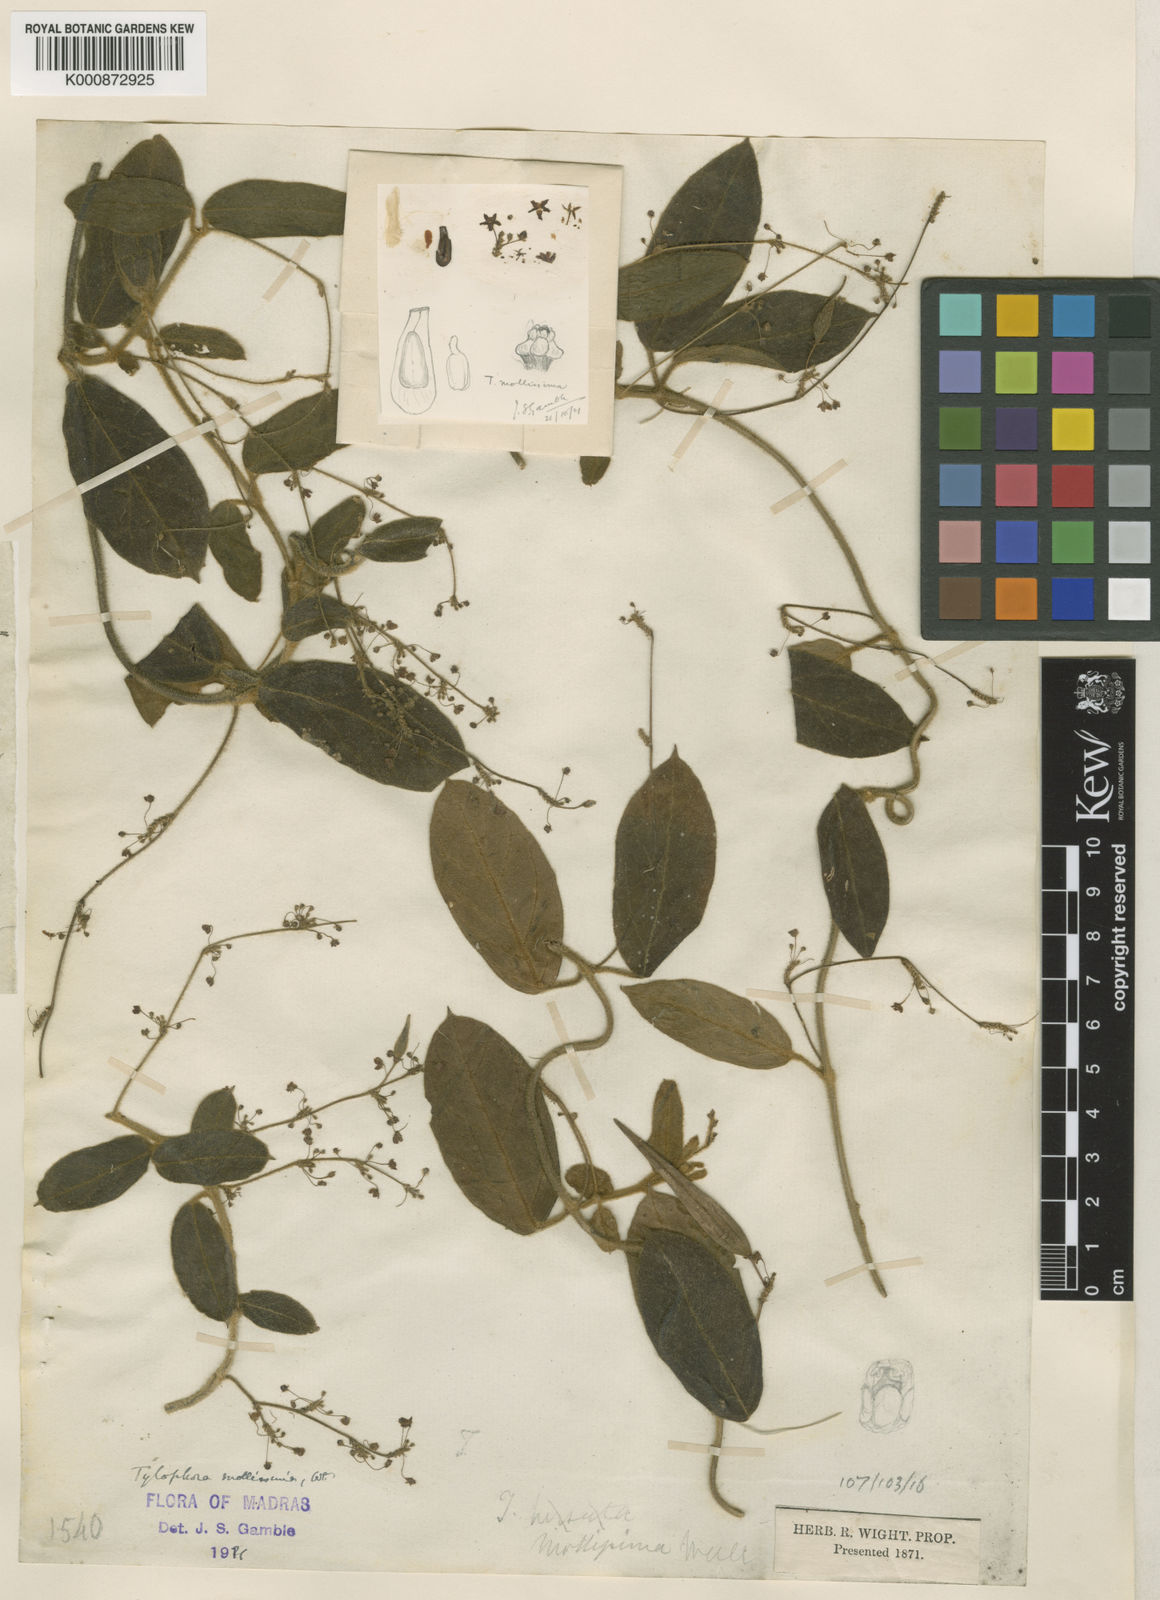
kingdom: Plantae
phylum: Tracheophyta
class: Magnoliopsida
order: Gentianales
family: Apocynaceae
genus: Vincetoxicum
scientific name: Vincetoxicum hirsutum
